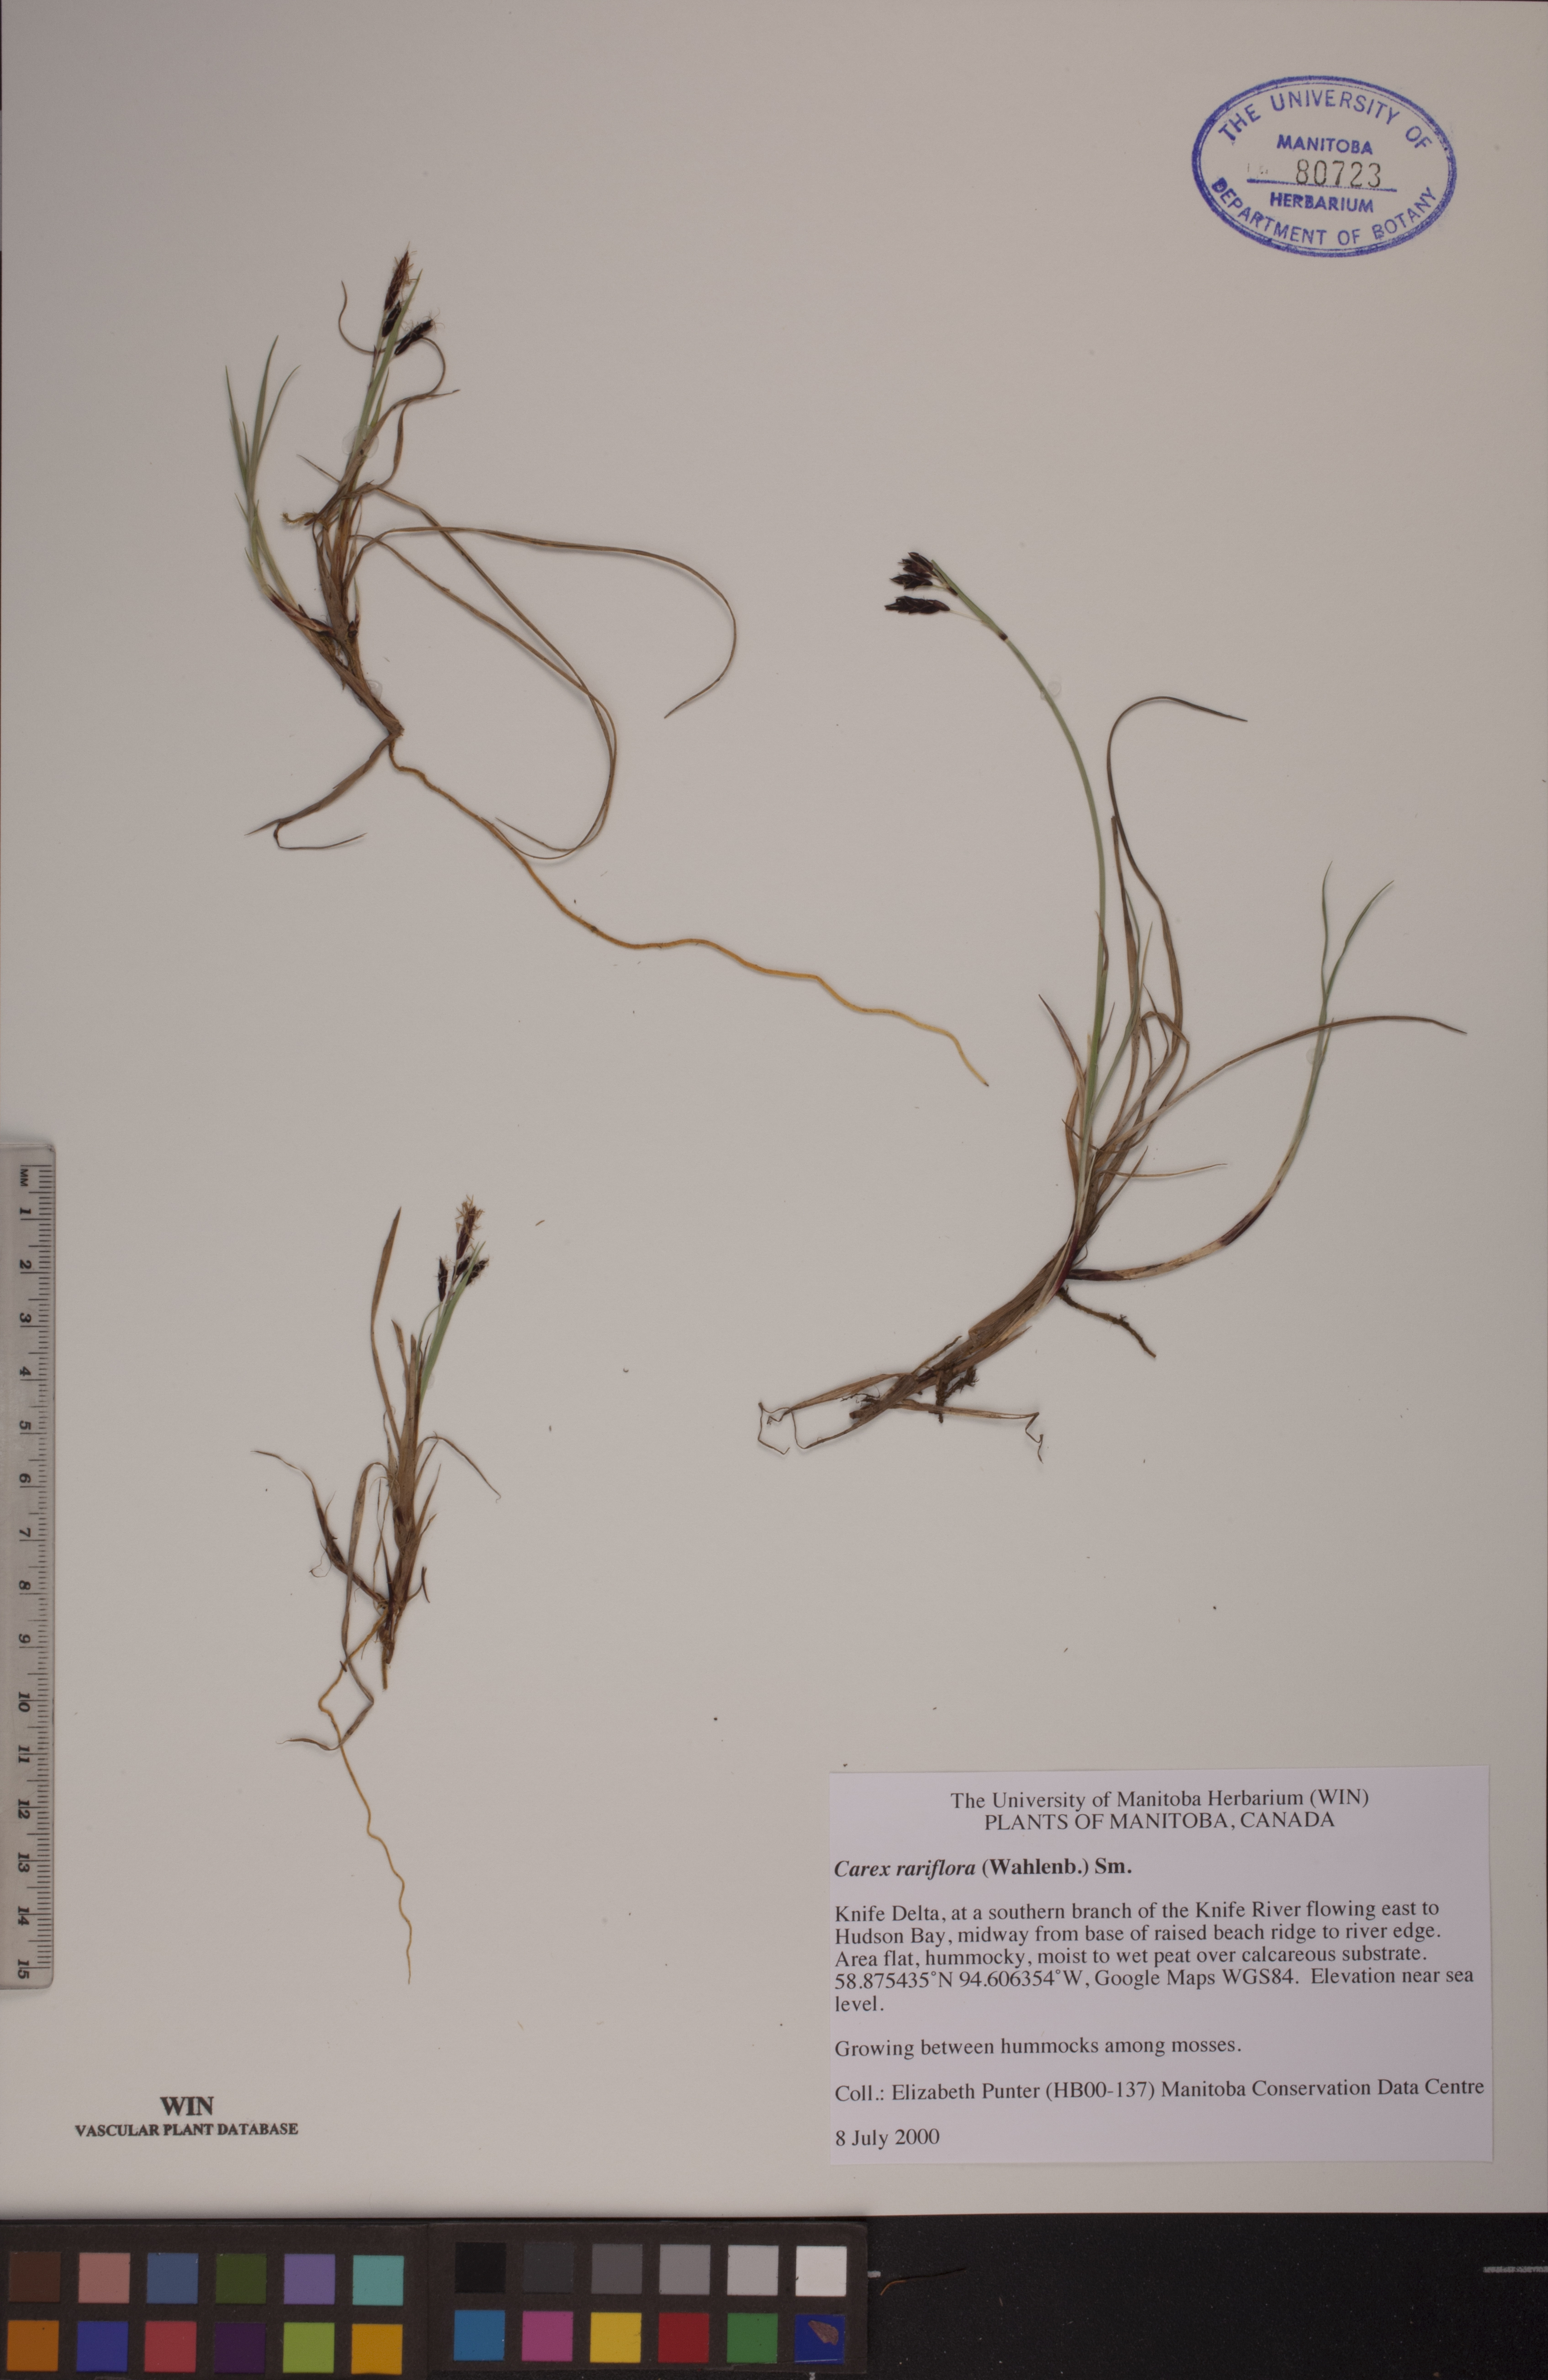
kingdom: Plantae
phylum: Tracheophyta
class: Liliopsida
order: Poales
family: Cyperaceae
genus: Carex
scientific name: Carex rariflora
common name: Loose-flowered alpine sedge
